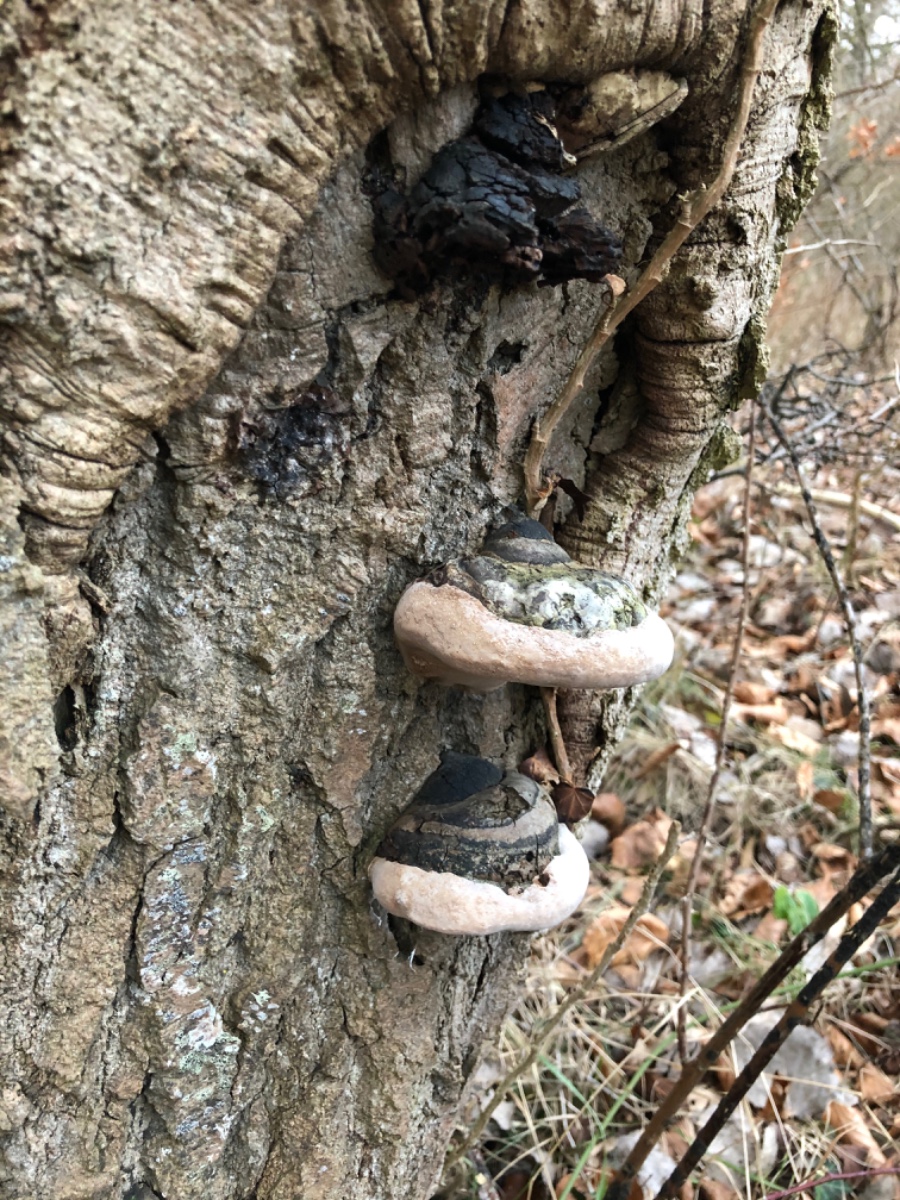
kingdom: Fungi
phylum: Basidiomycota
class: Agaricomycetes
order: Hymenochaetales
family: Hymenochaetaceae
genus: Phellinus
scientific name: Phellinus populicola
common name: poppel-ildporesvamp
